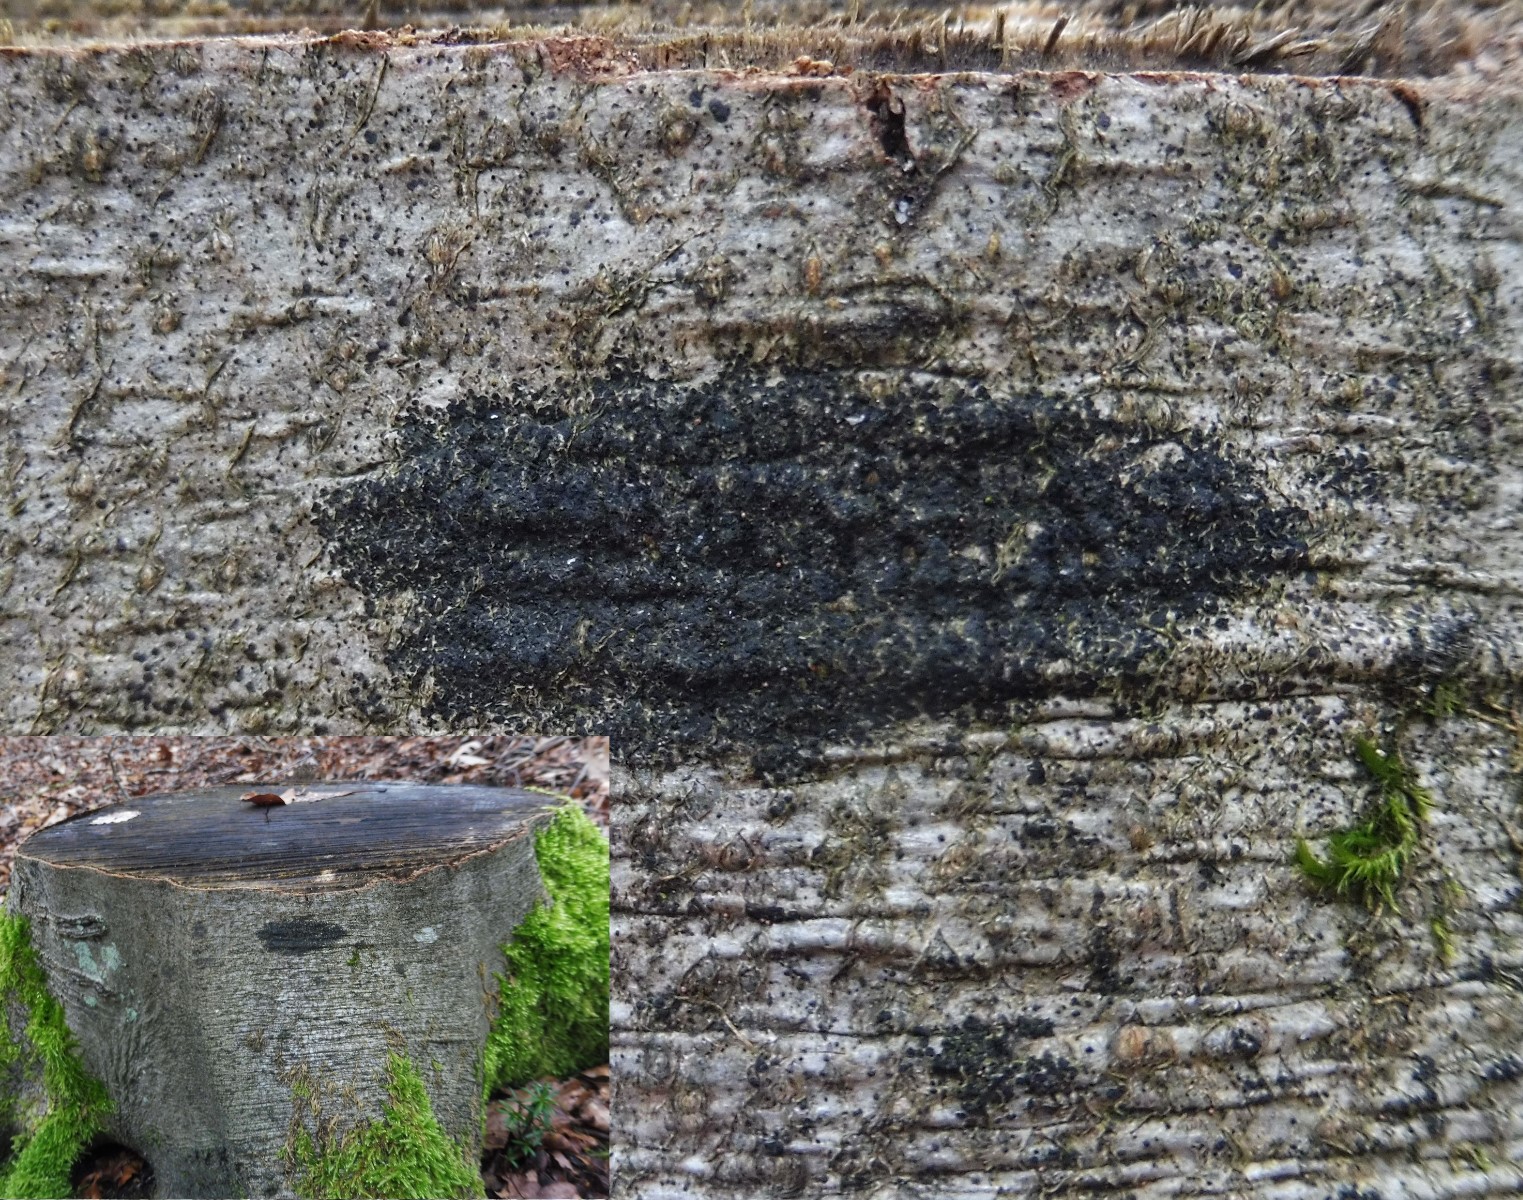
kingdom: Fungi
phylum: Ascomycota
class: Leotiomycetes
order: Rhytismatales
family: Ascodichaenaceae
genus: Ascodichaena
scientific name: Ascodichaena rugosa
